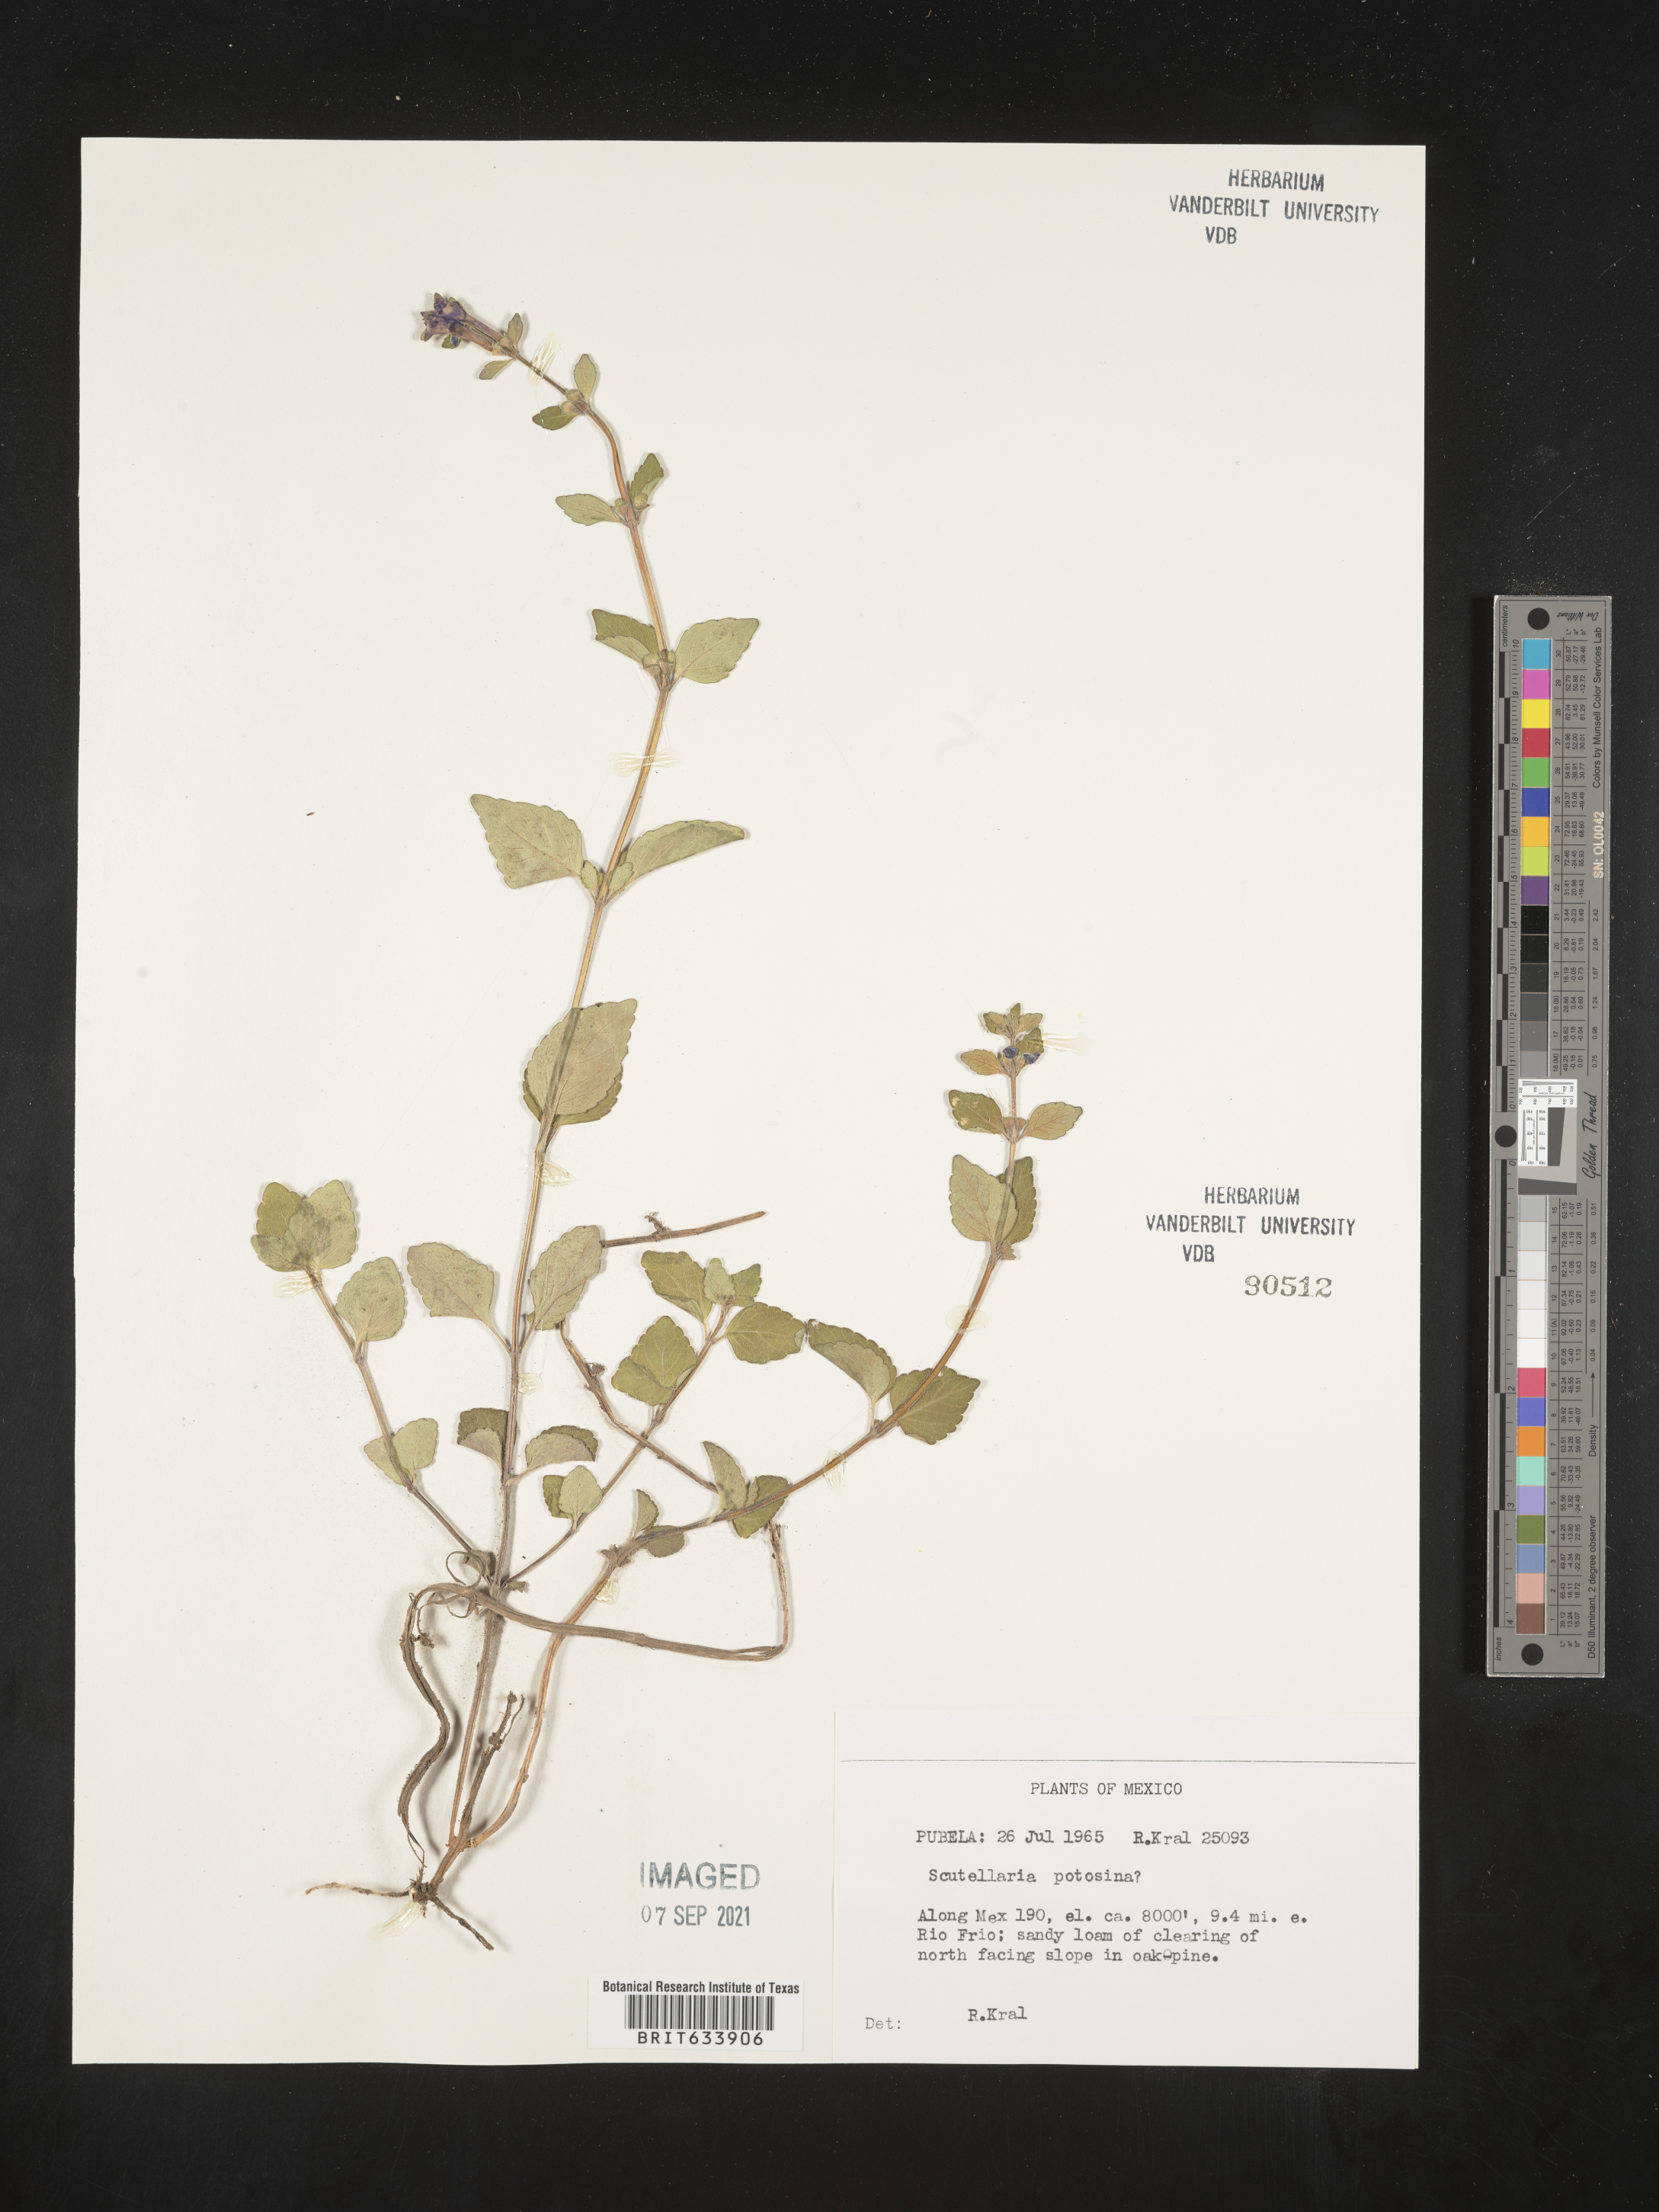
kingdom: Plantae
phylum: Tracheophyta
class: Magnoliopsida
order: Lamiales
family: Lamiaceae
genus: Scutellaria
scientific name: Scutellaria
